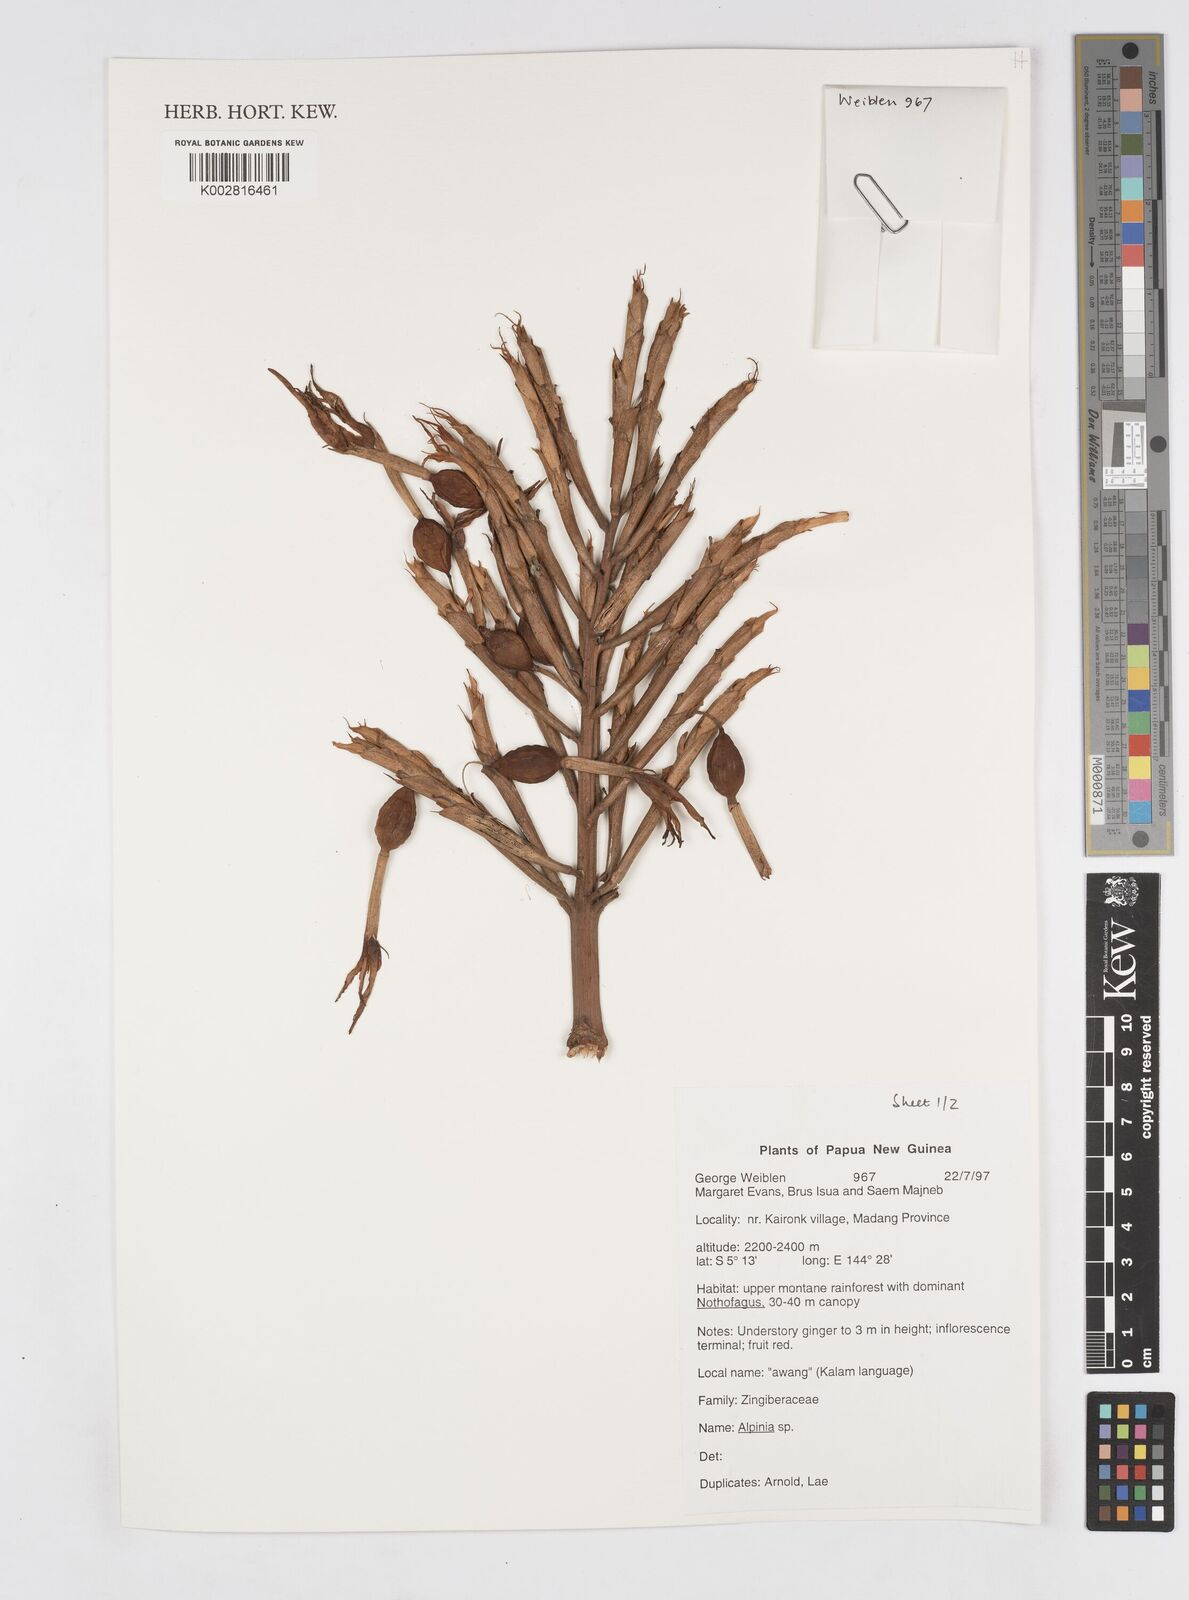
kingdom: Plantae
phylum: Tracheophyta
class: Liliopsida
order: Zingiberales
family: Zingiberaceae
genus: Alpinia
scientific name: Alpinia
